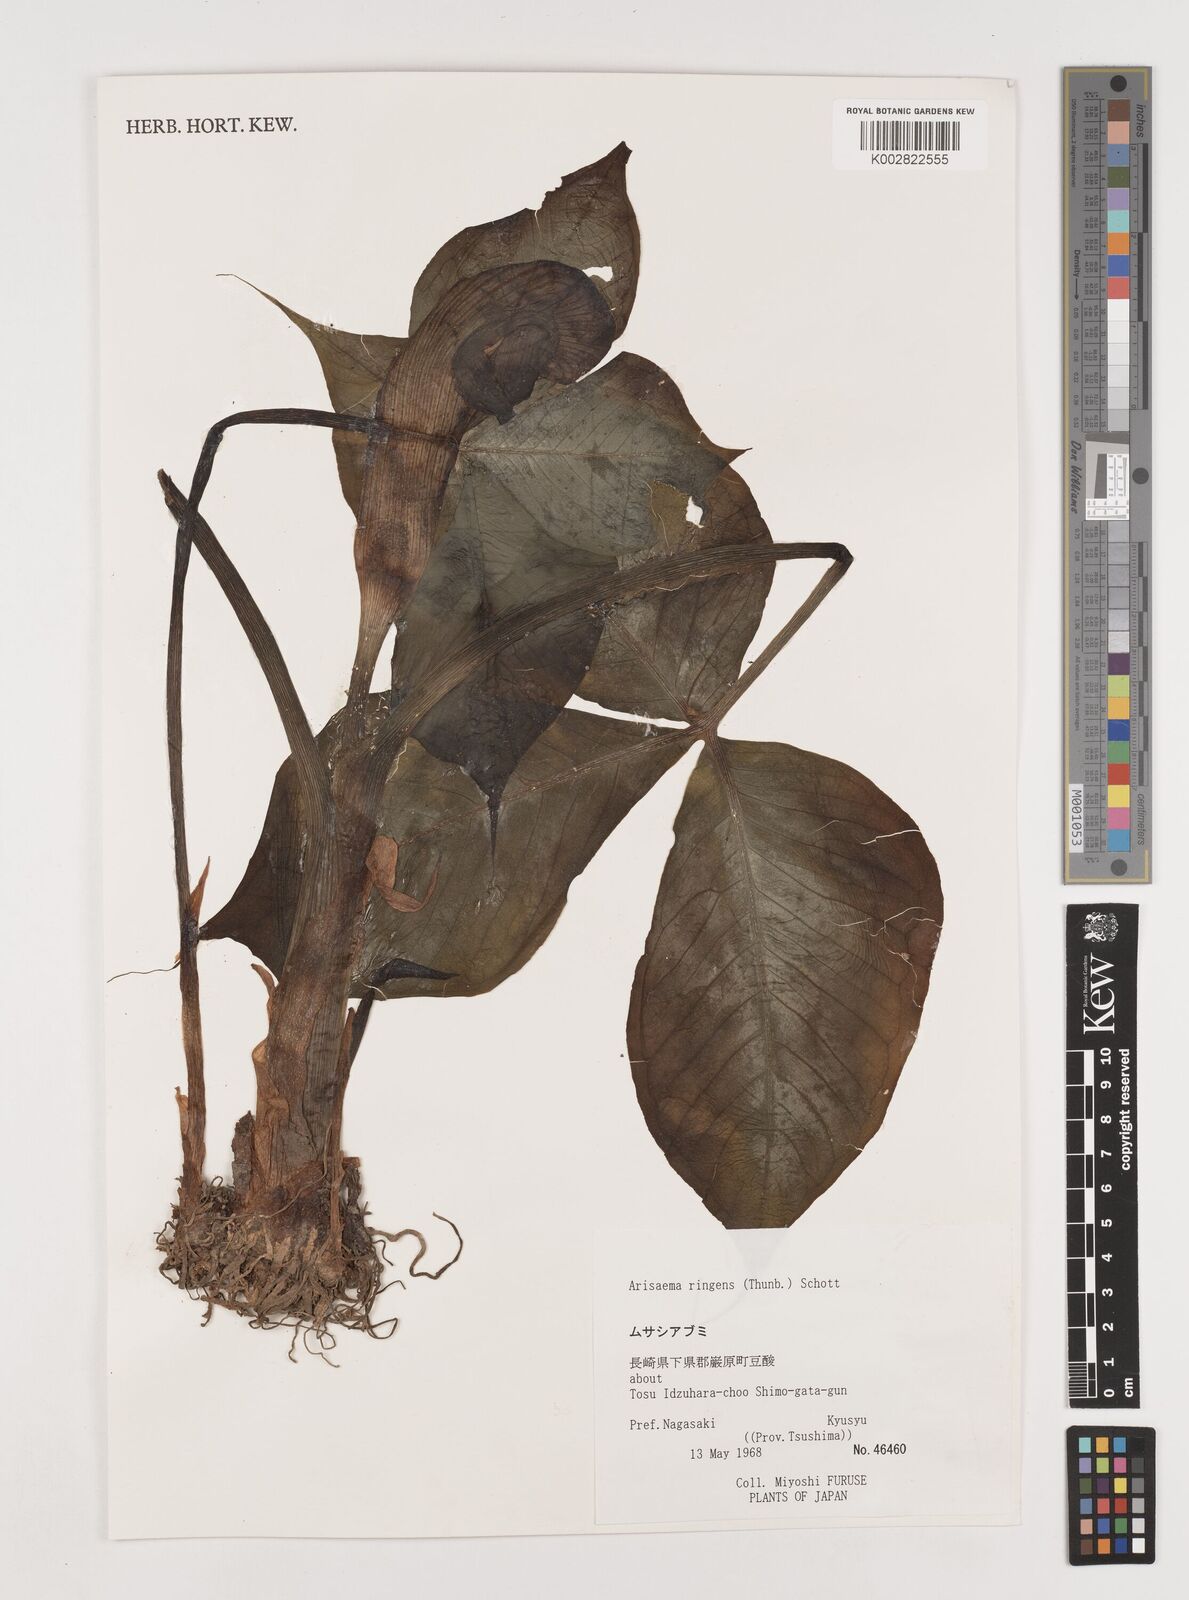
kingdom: Plantae
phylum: Tracheophyta
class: Liliopsida
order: Alismatales
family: Araceae
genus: Arisaema
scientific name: Arisaema ringens
